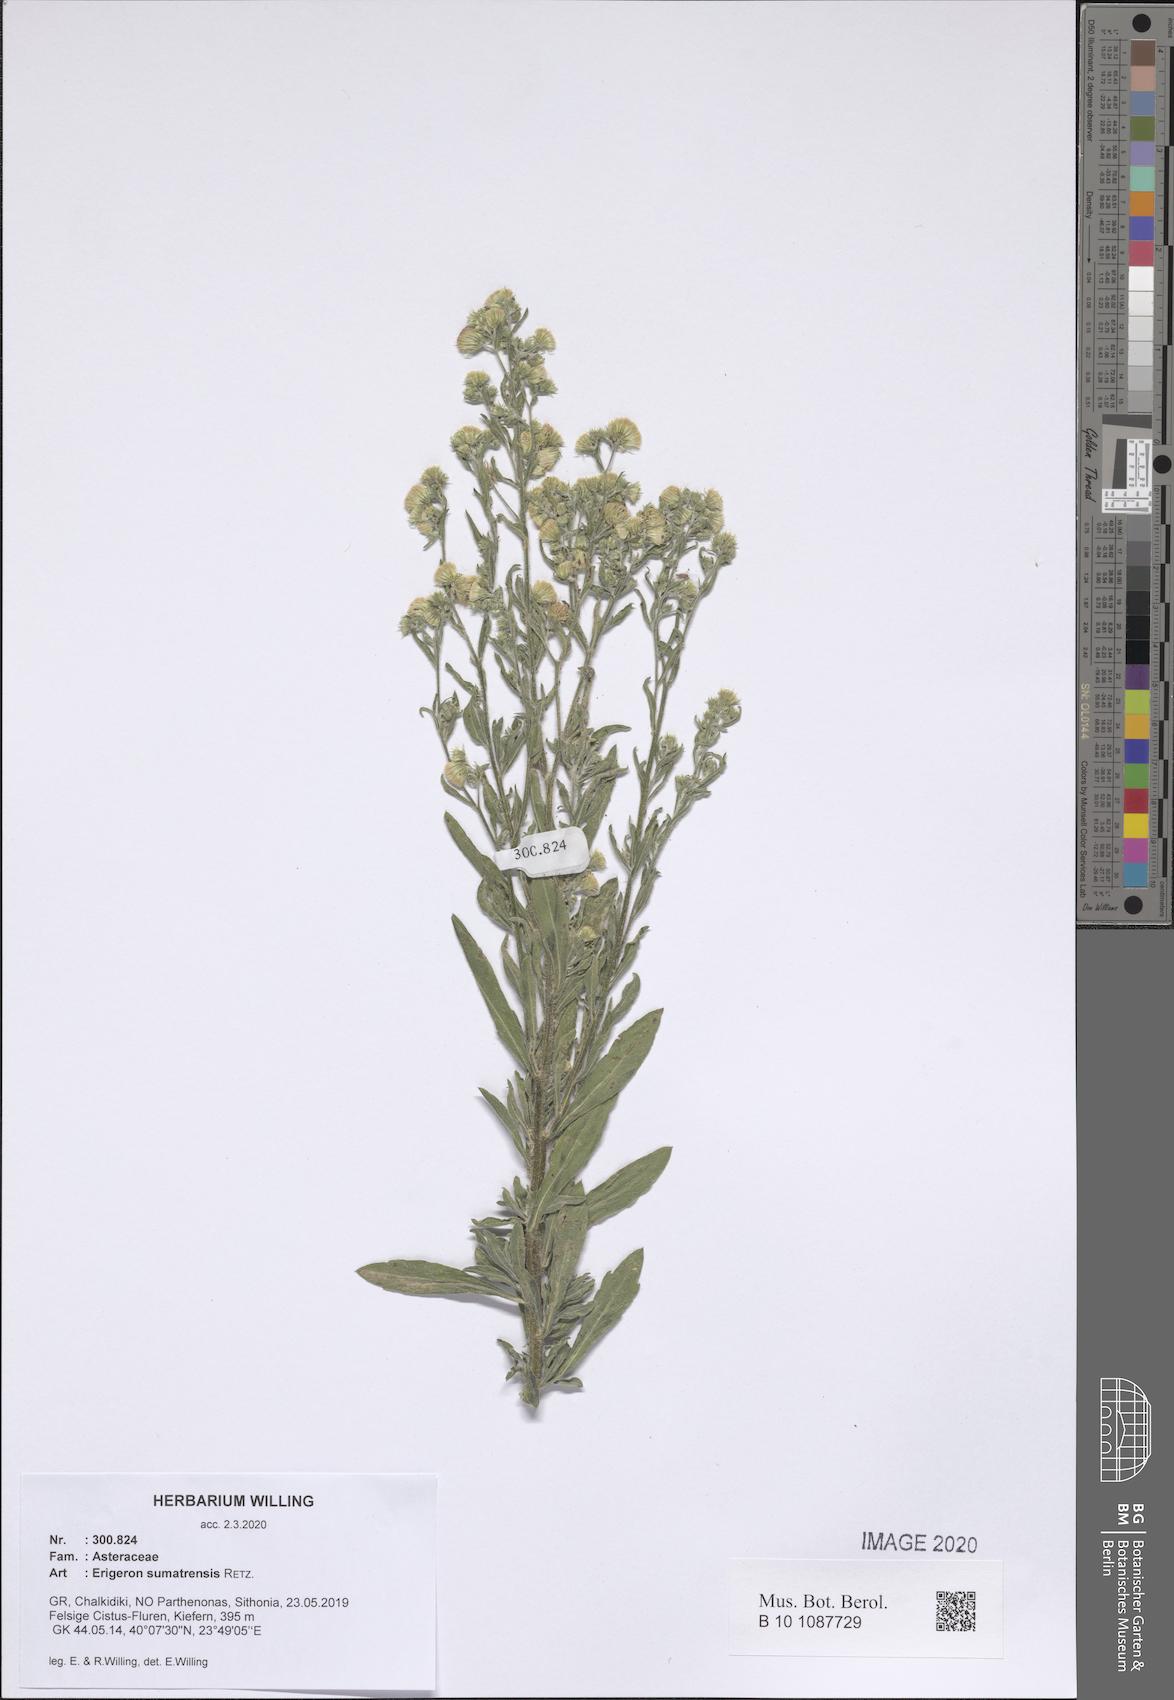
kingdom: Plantae
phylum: Tracheophyta
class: Magnoliopsida
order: Asterales
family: Asteraceae
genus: Erigeron
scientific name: Erigeron sumatrensis
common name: Daisy
